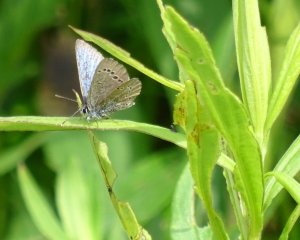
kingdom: Animalia
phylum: Arthropoda
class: Insecta
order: Lepidoptera
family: Lycaenidae
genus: Glaucopsyche
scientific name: Glaucopsyche lygdamus
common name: Silvery Blue
